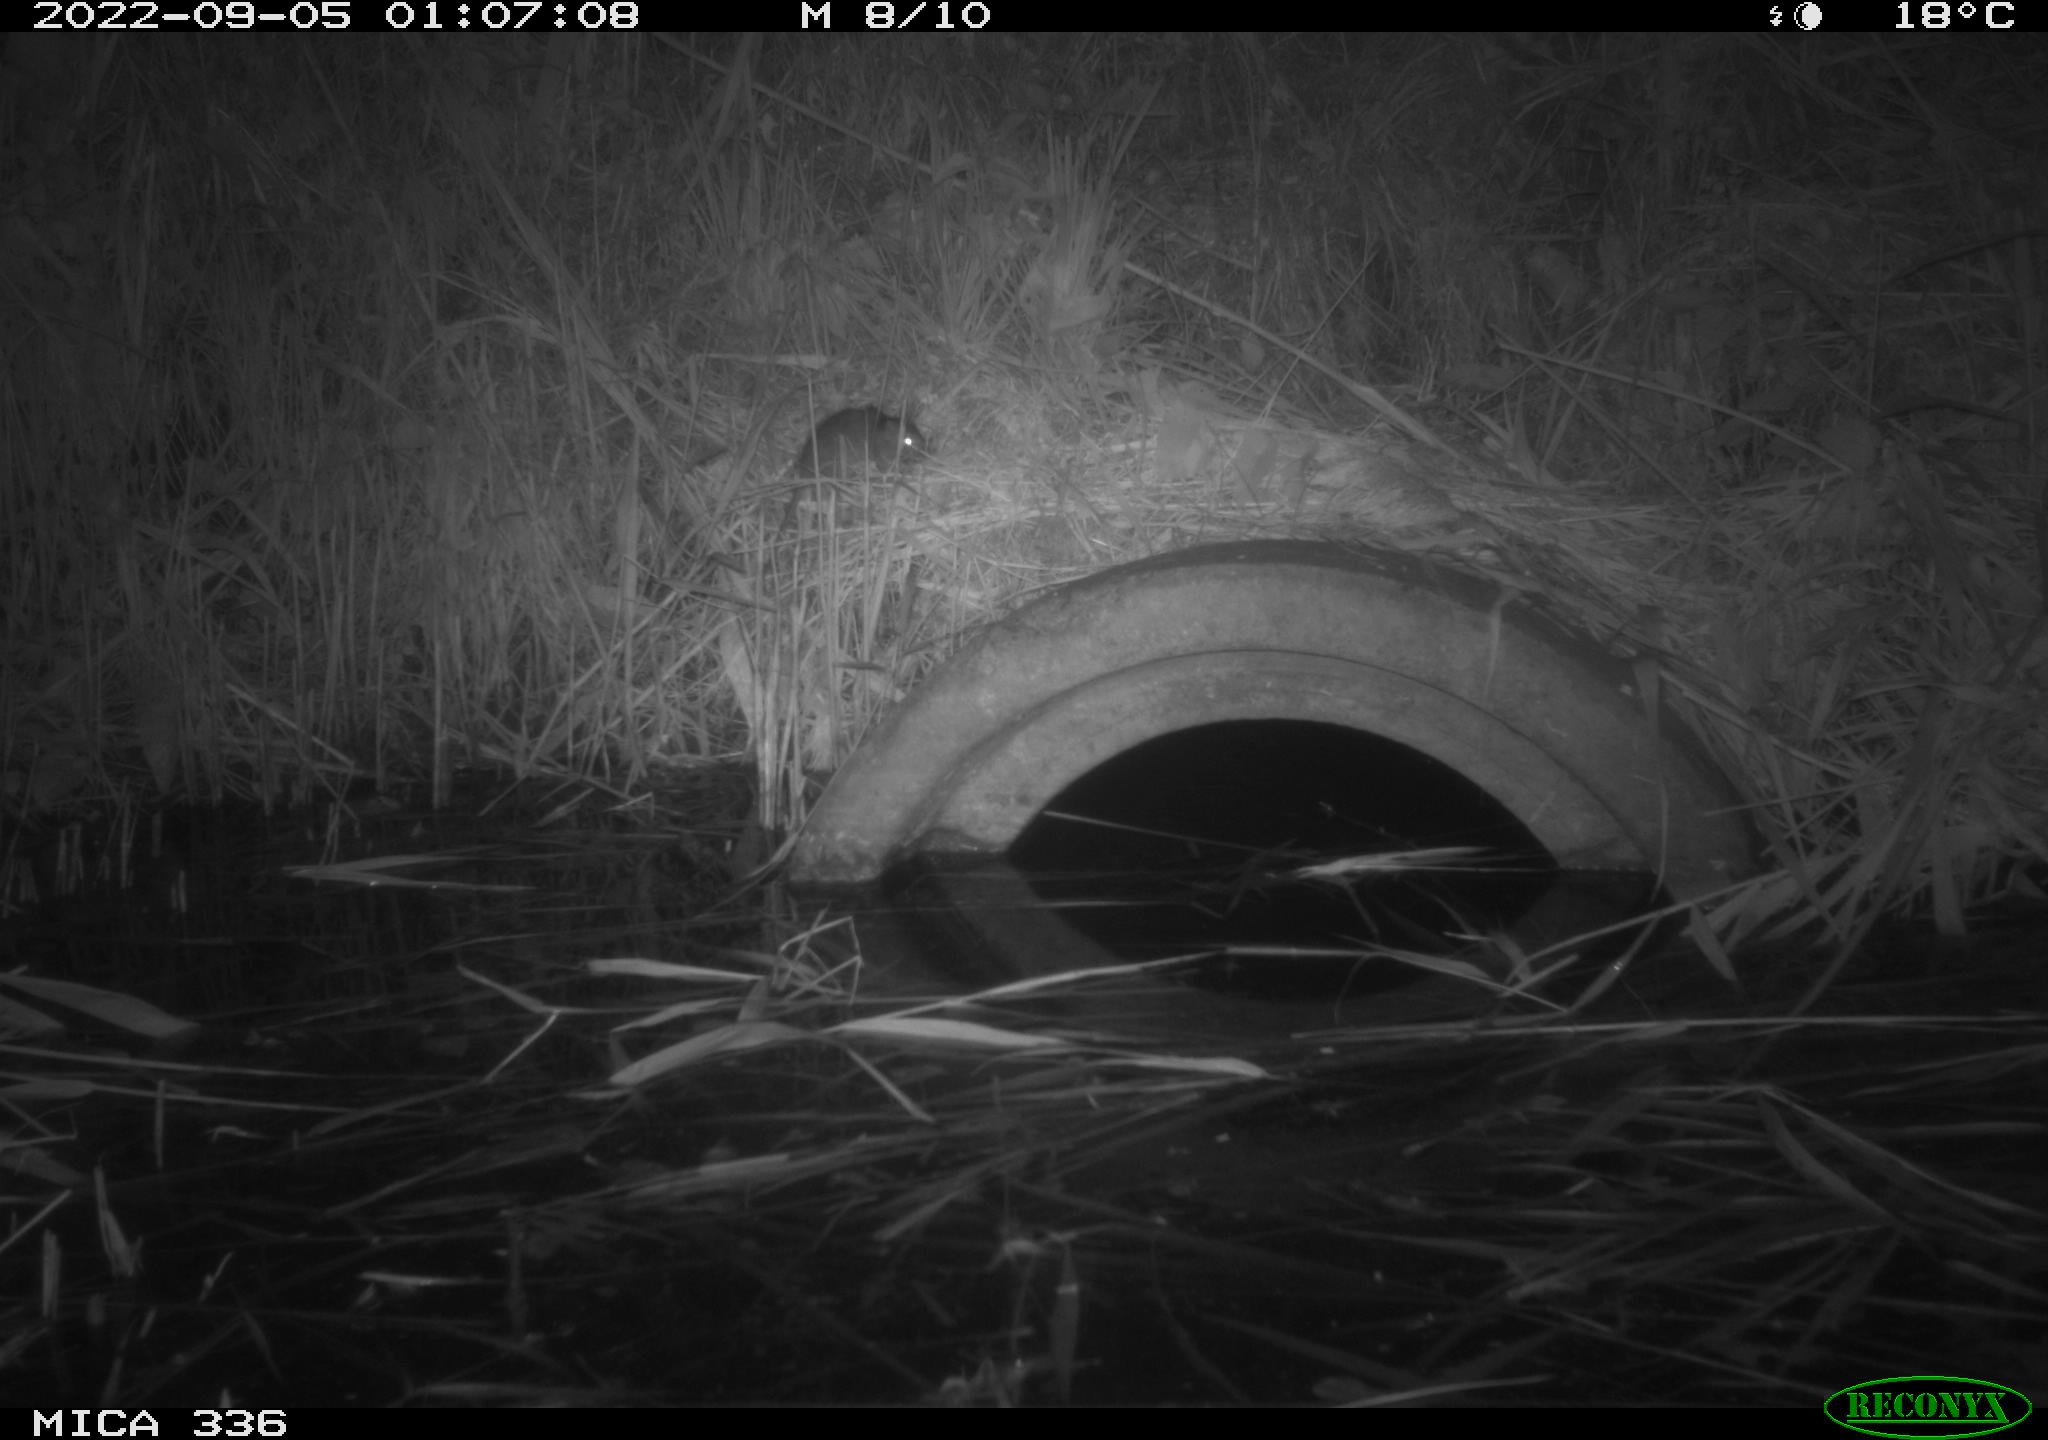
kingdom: Animalia
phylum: Chordata
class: Mammalia
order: Rodentia
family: Muridae
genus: Rattus
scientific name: Rattus norvegicus
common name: Brown rat
